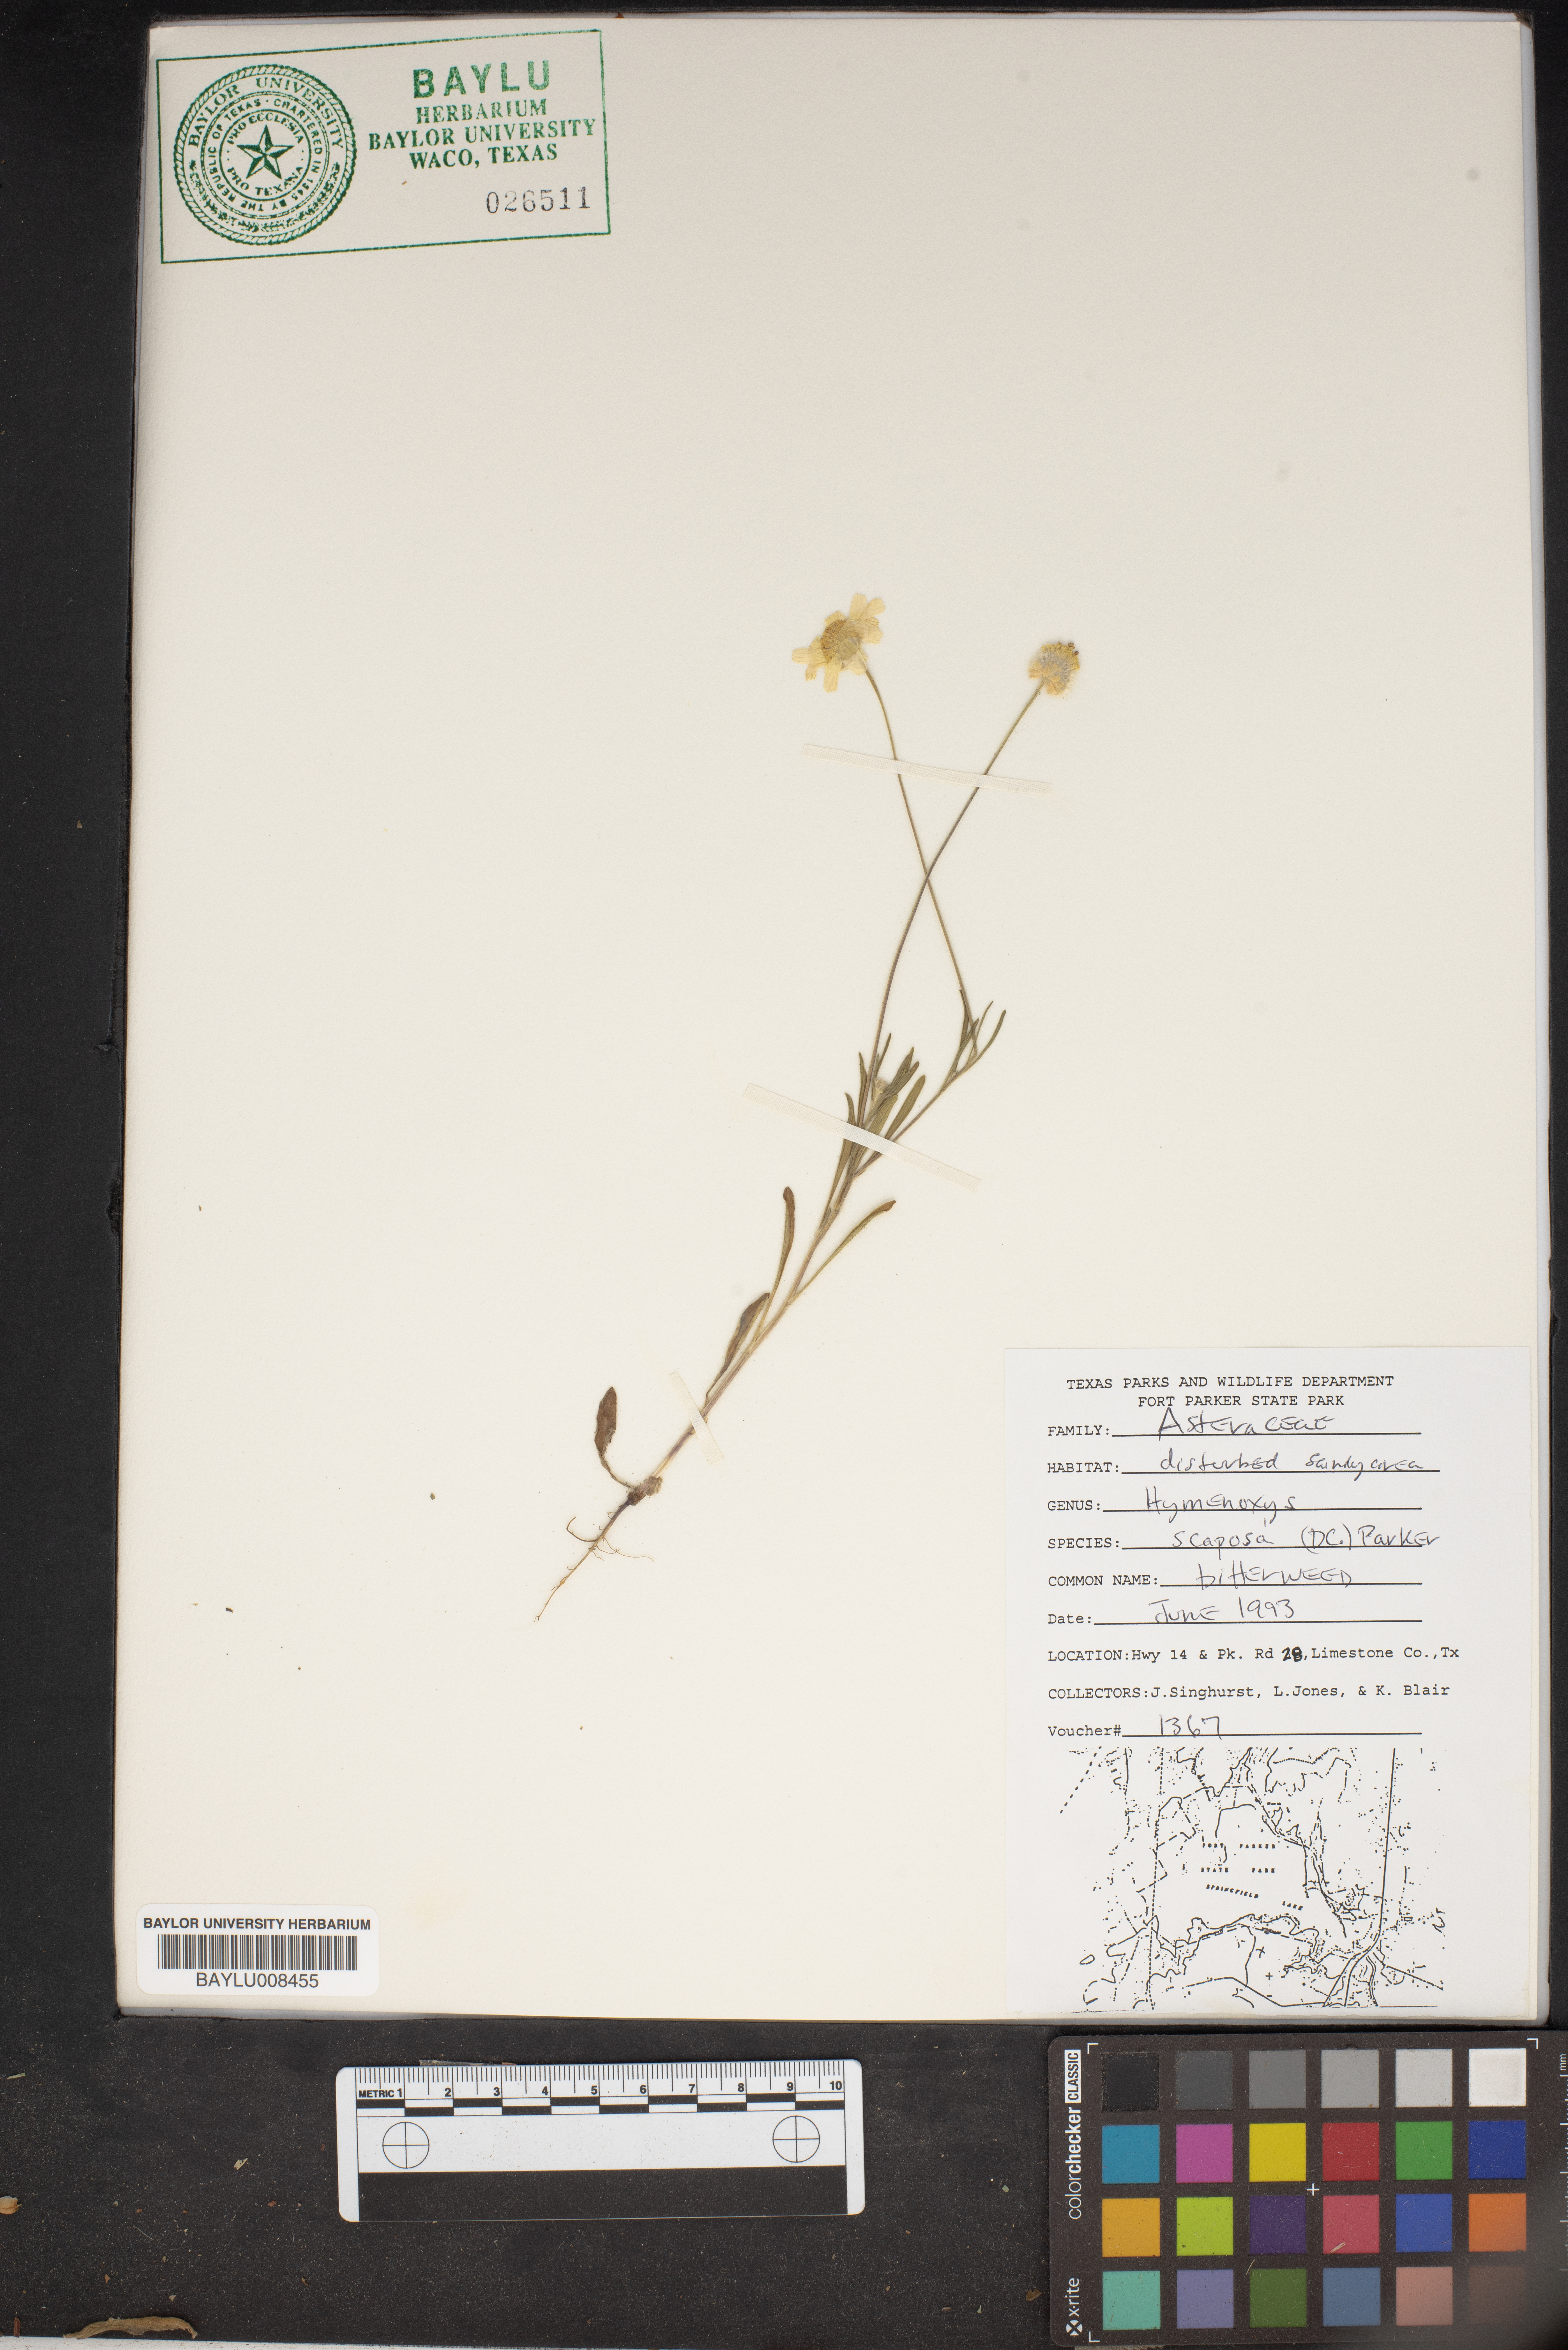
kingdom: Plantae
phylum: Tracheophyta
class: Magnoliopsida
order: Asterales
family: Asteraceae
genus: Tetraneuris
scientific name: Tetraneuris scaposa
